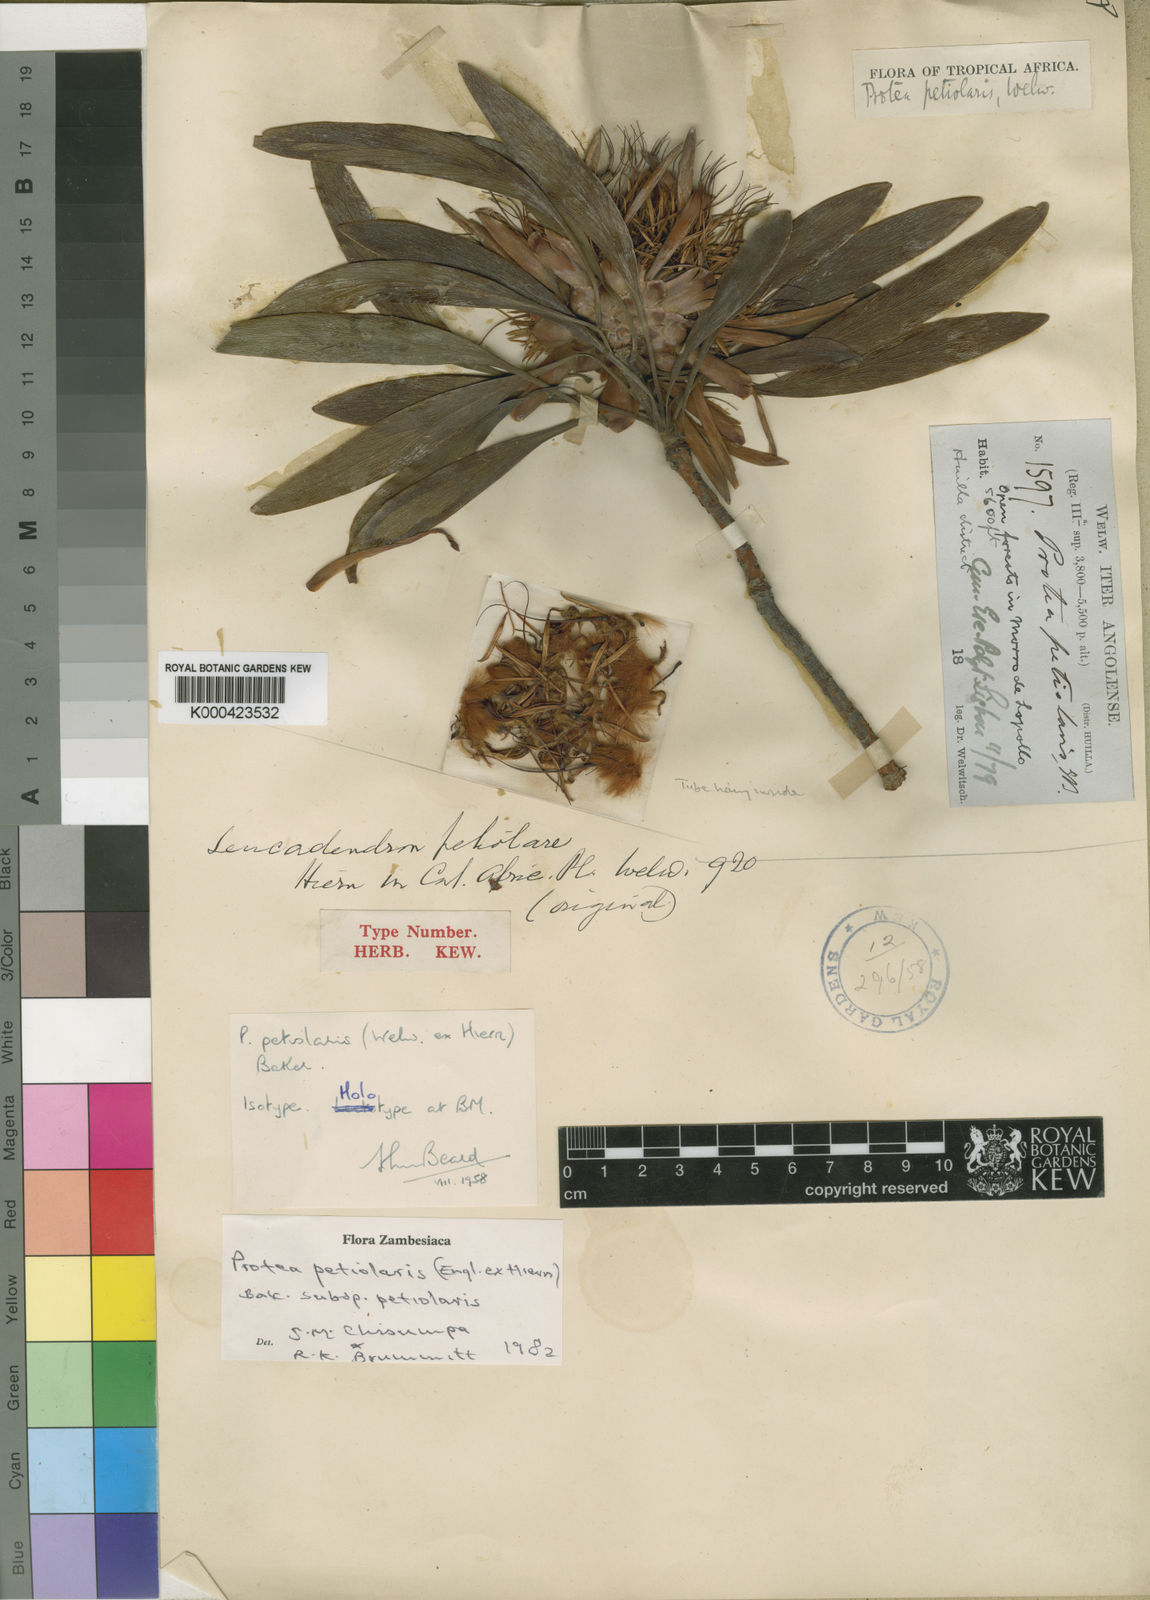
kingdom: Plantae
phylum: Tracheophyta
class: Magnoliopsida
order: Proteales
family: Proteaceae
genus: Protea
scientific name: Protea petiolaris
